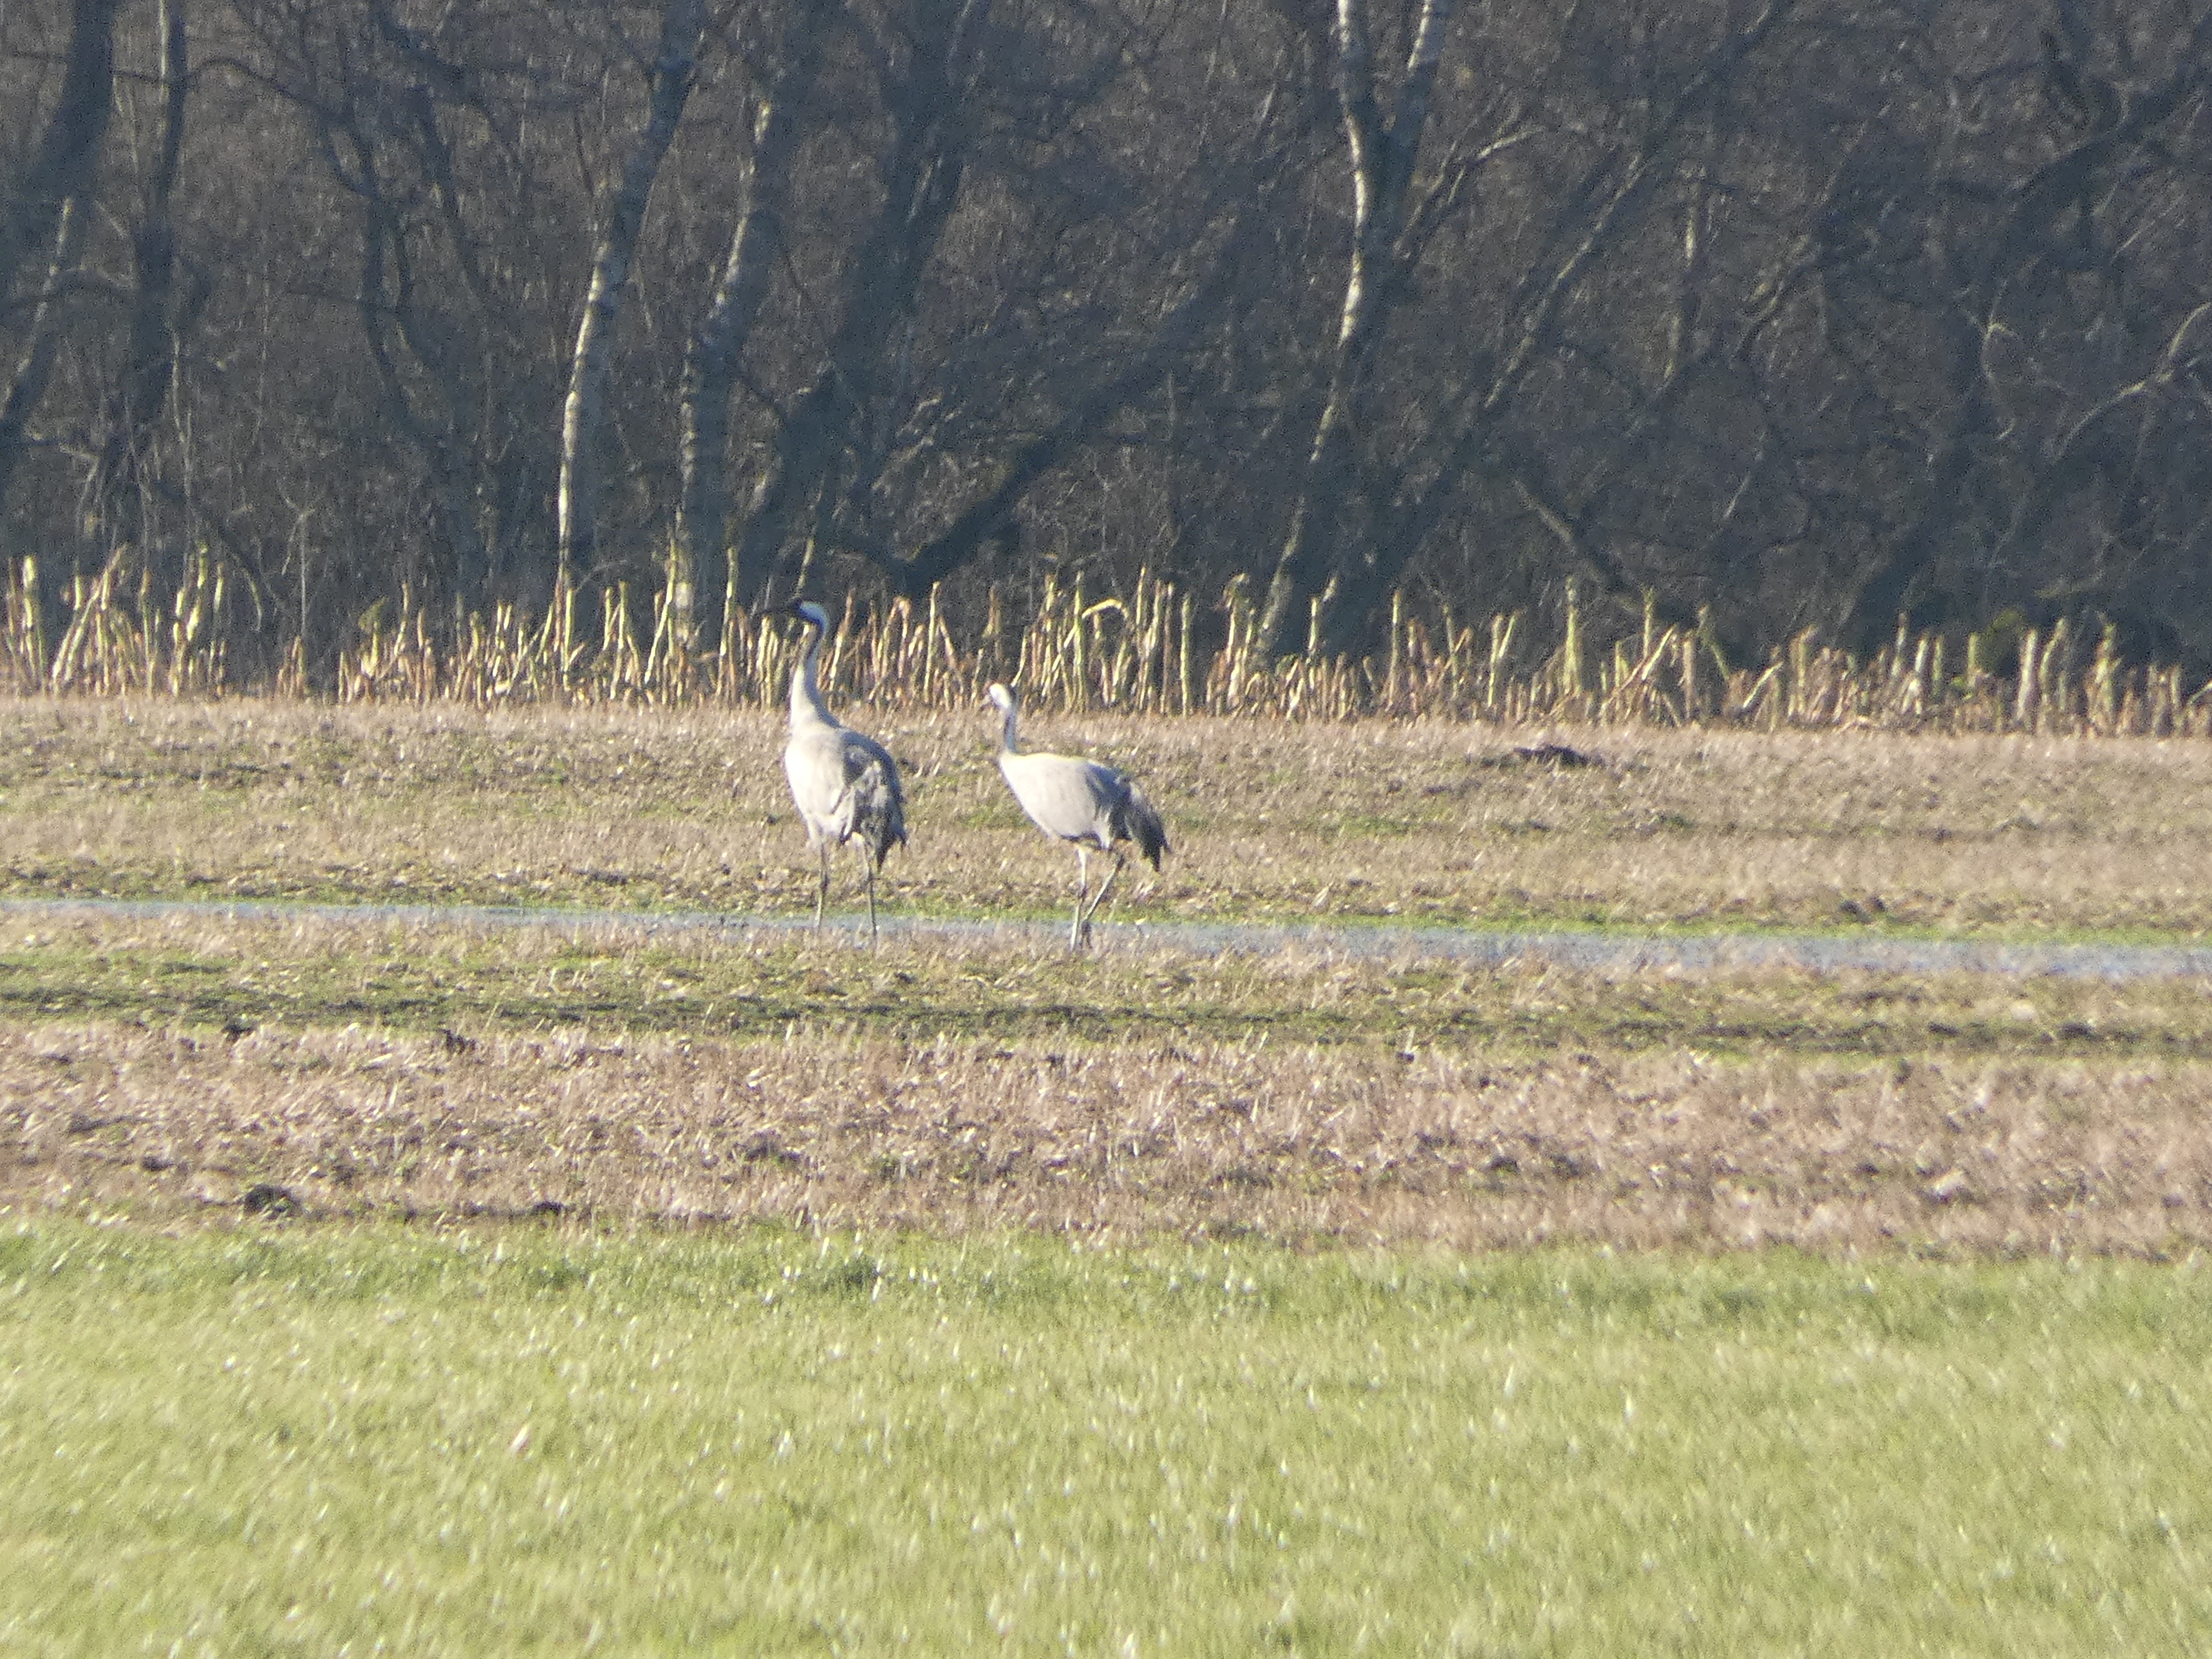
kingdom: Animalia
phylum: Chordata
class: Aves
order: Gruiformes
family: Gruidae
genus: Grus
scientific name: Grus grus
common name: Trane
